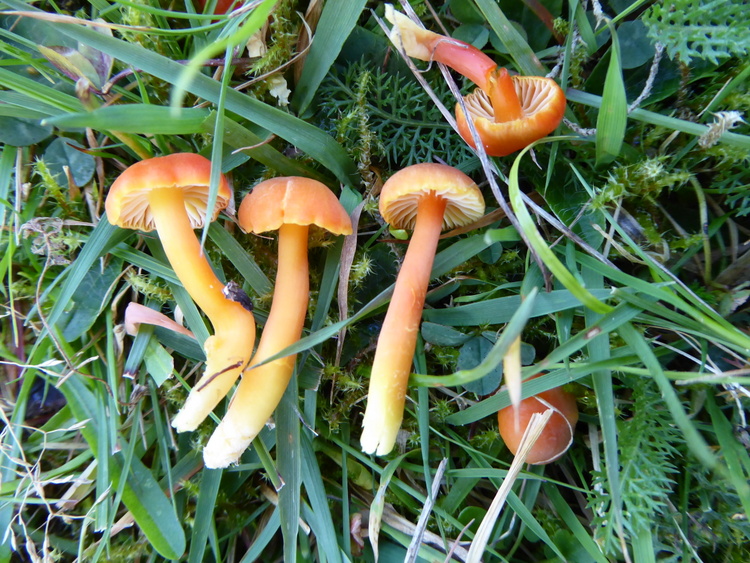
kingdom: Fungi
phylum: Basidiomycota
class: Agaricomycetes
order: Agaricales
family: Hygrophoraceae
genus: Hygrocybe
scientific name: Hygrocybe reidii
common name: honning-vokshat
